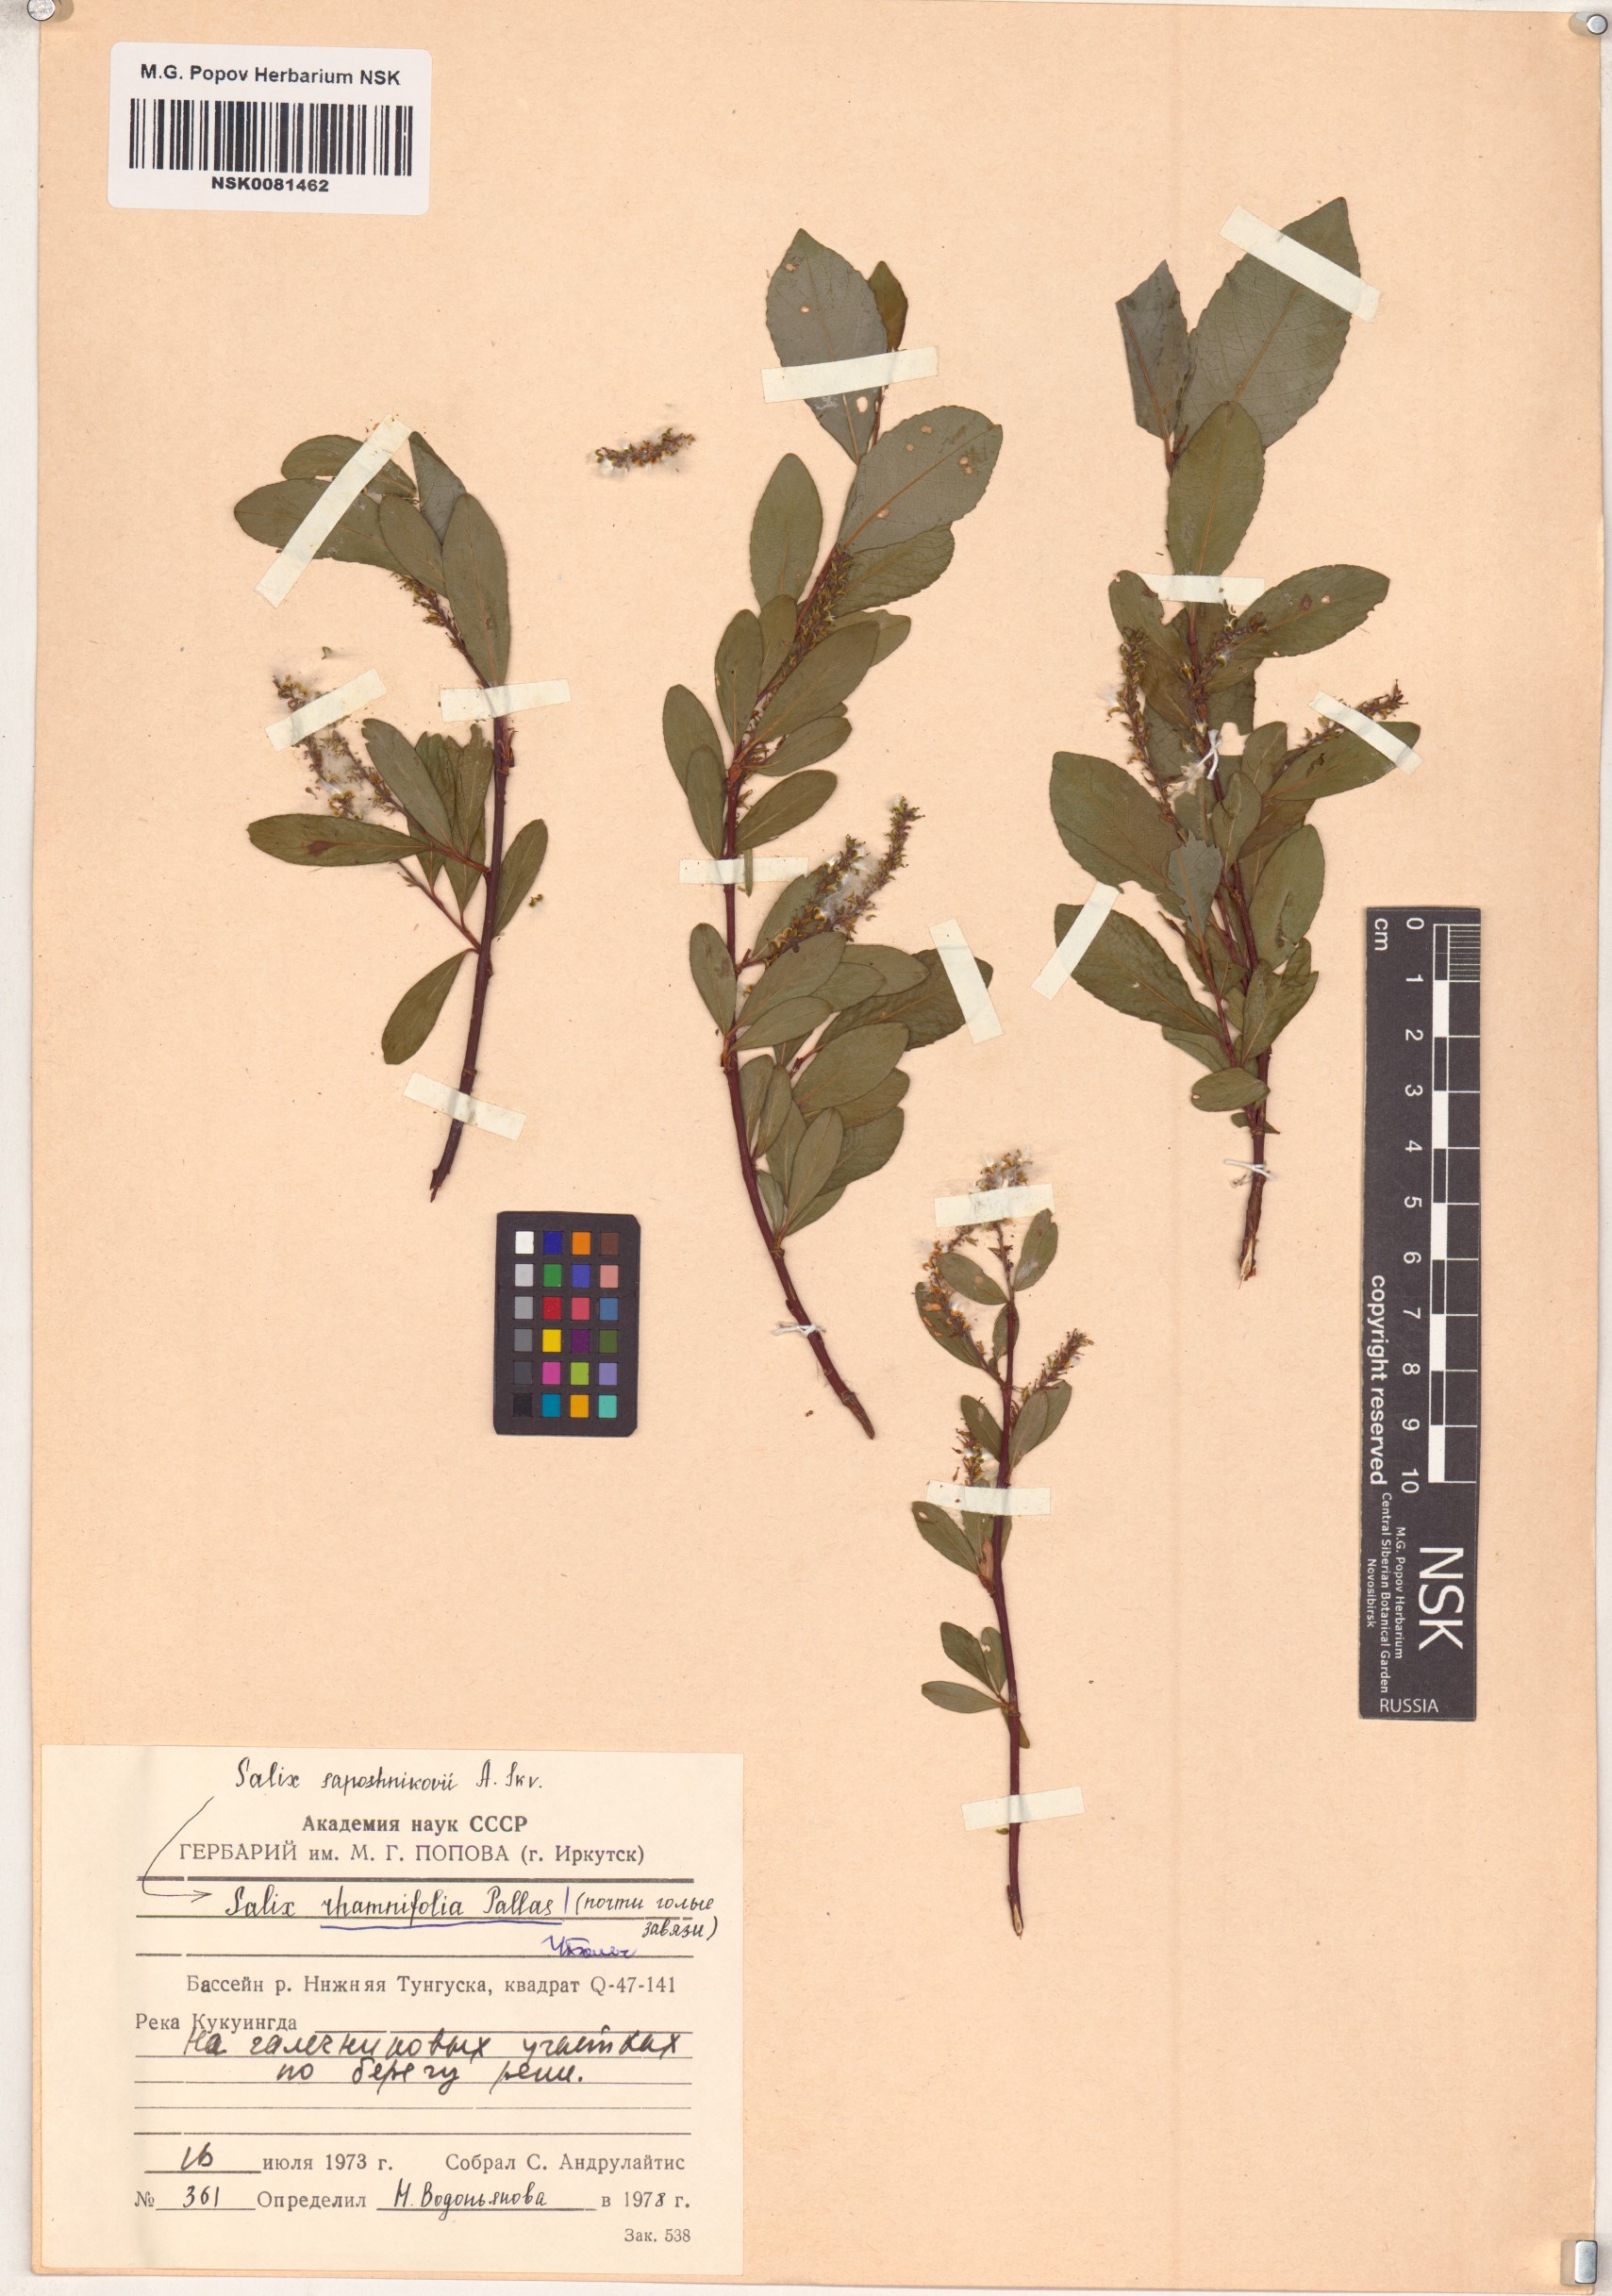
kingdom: Plantae
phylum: Tracheophyta
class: Magnoliopsida
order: Malpighiales
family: Salicaceae
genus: Salix
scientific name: Salix rhamnifolia
